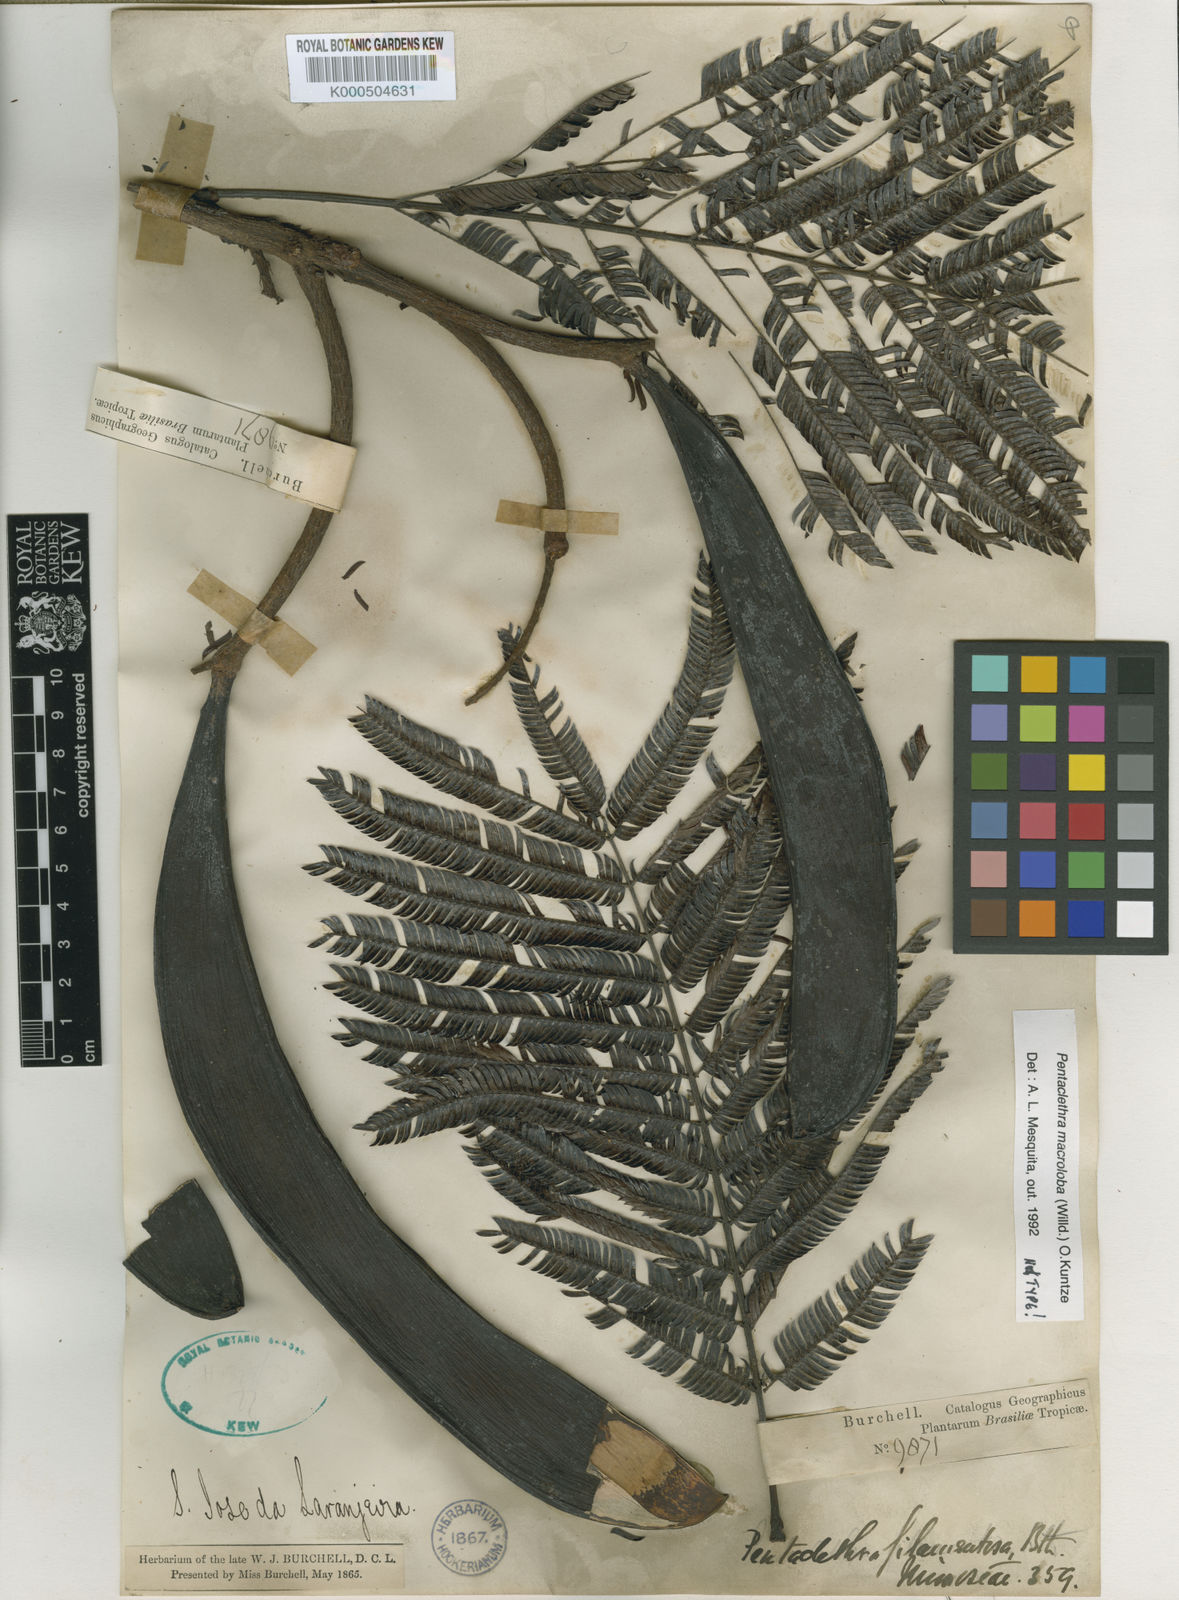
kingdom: Plantae
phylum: Tracheophyta
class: Magnoliopsida
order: Fabales
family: Fabaceae
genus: Pentaclethra
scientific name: Pentaclethra macroloba
